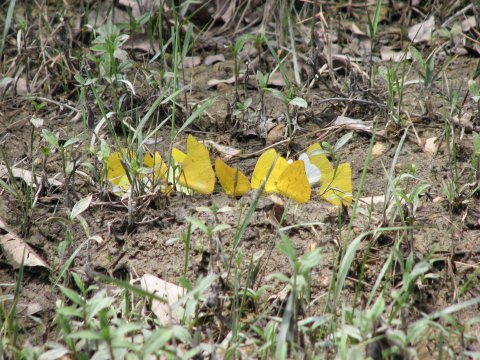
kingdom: Animalia
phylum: Arthropoda
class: Insecta
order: Lepidoptera
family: Pieridae
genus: Phoebis
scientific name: Phoebis philea
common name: Orange-barred Sulphur
